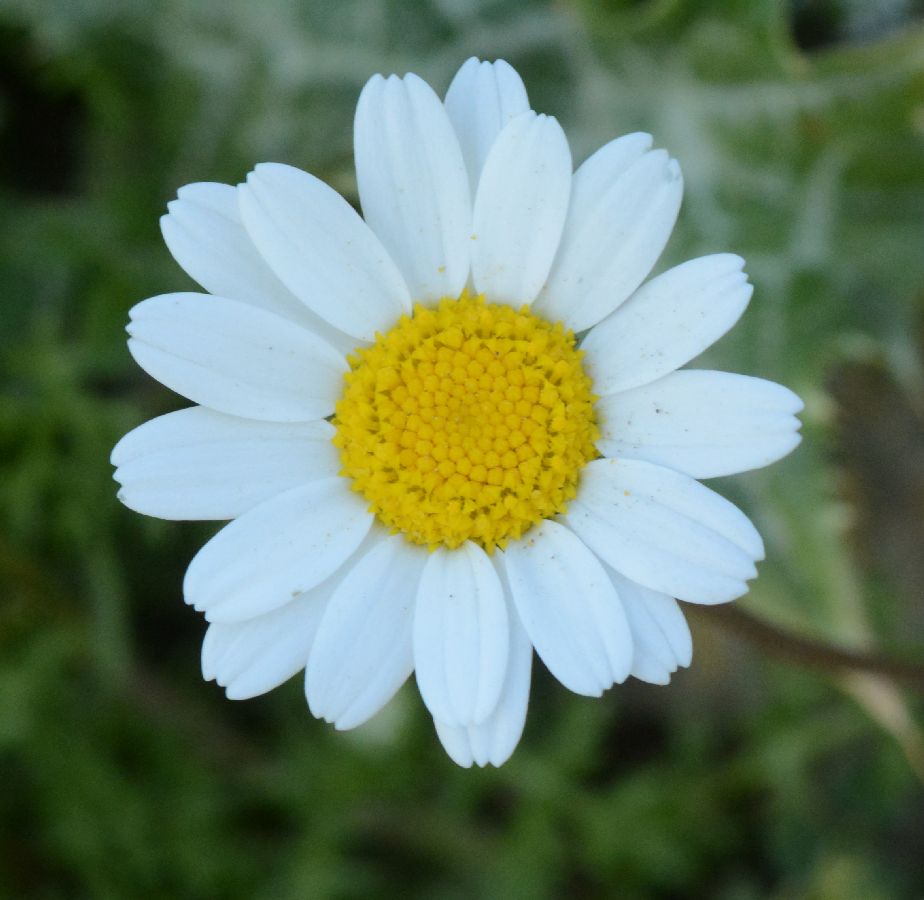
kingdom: Plantae
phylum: Tracheophyta
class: Magnoliopsida
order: Asterales
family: Asteraceae
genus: Anthemis
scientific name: Anthemis chia
